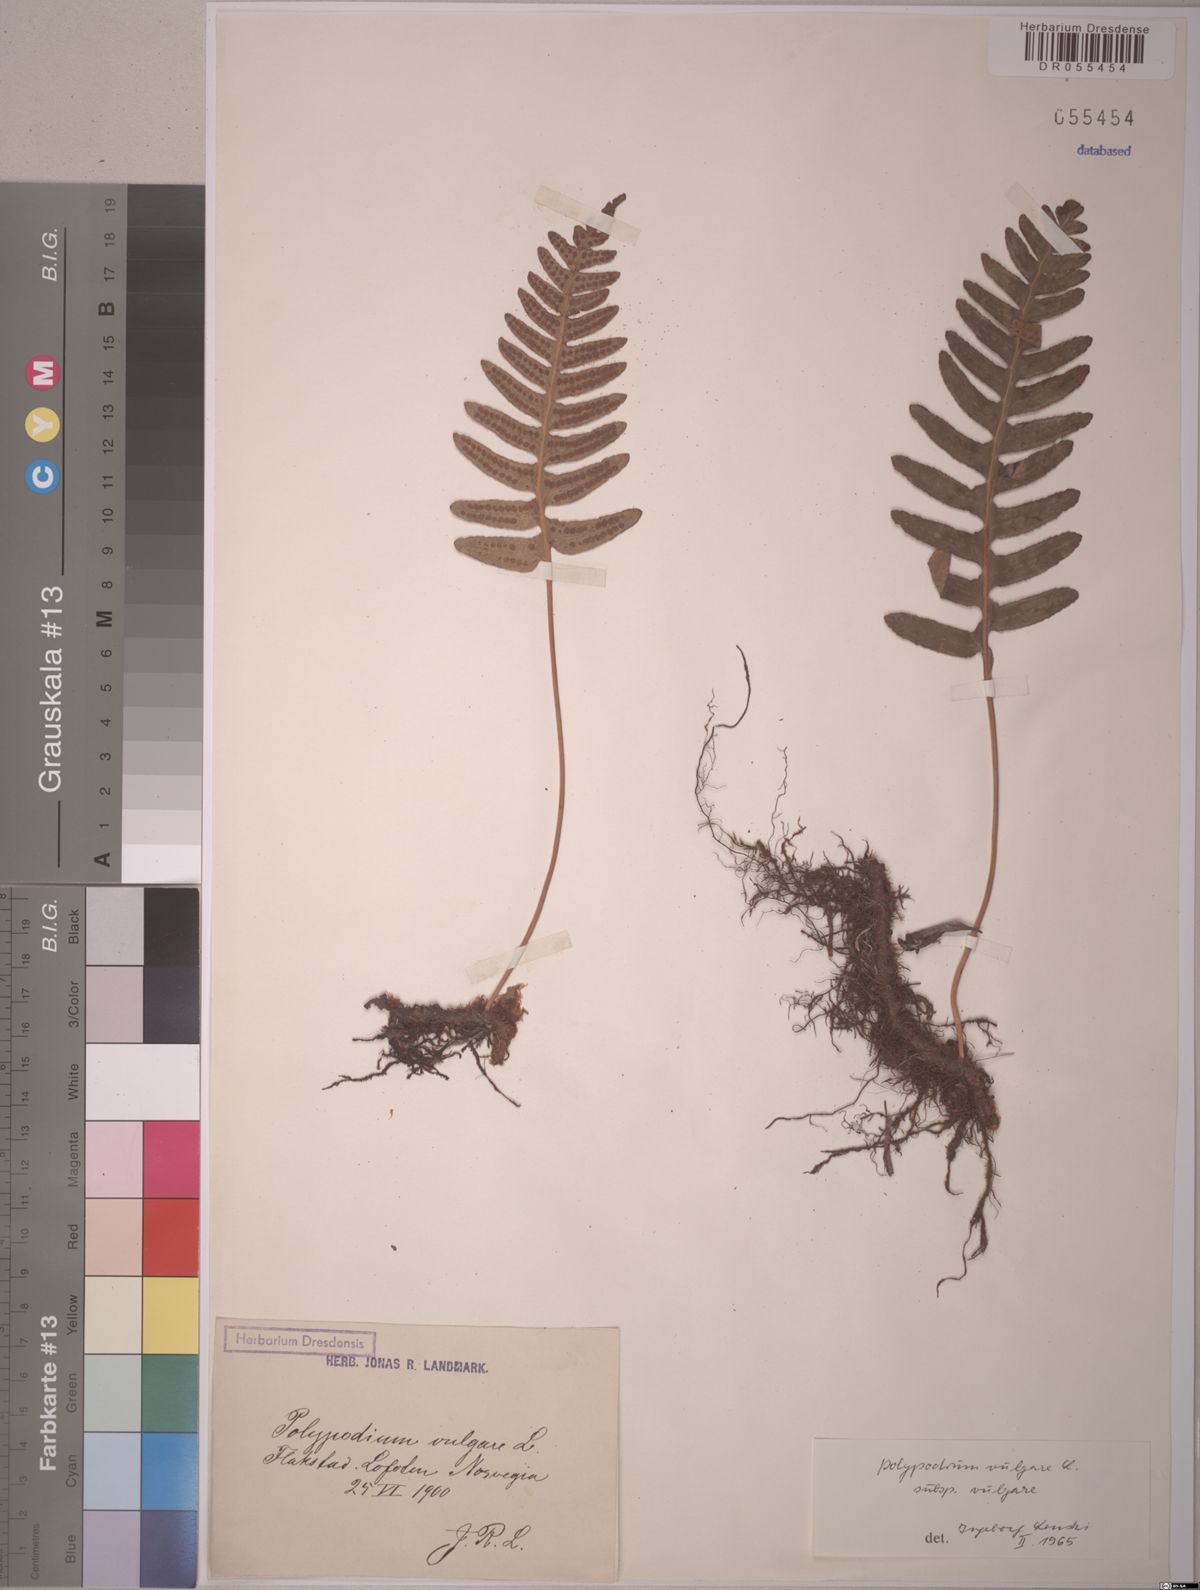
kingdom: Plantae
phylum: Tracheophyta
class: Polypodiopsida
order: Polypodiales
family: Polypodiaceae
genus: Polypodium
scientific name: Polypodium vulgare
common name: Common polypody
